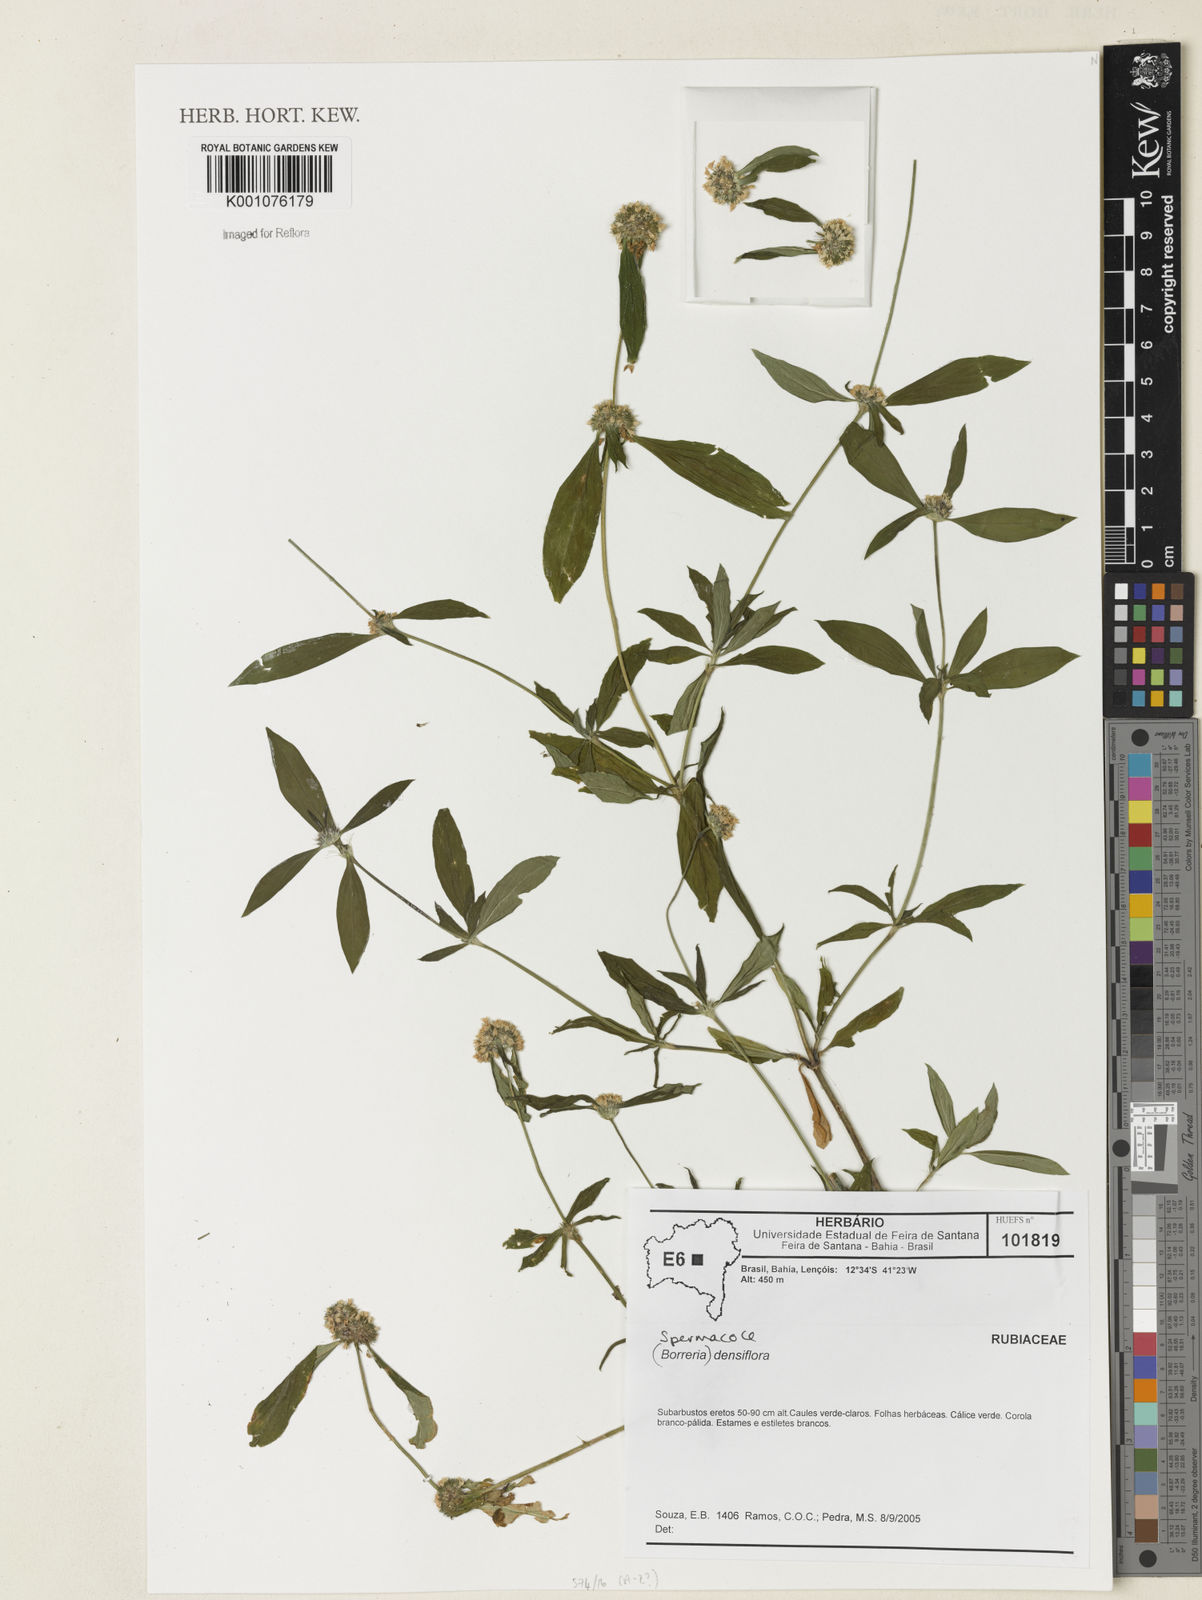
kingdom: Plantae
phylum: Tracheophyta
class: Magnoliopsida
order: Gentianales
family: Rubiaceae
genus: Spermacoce
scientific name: Spermacoce densiflora
